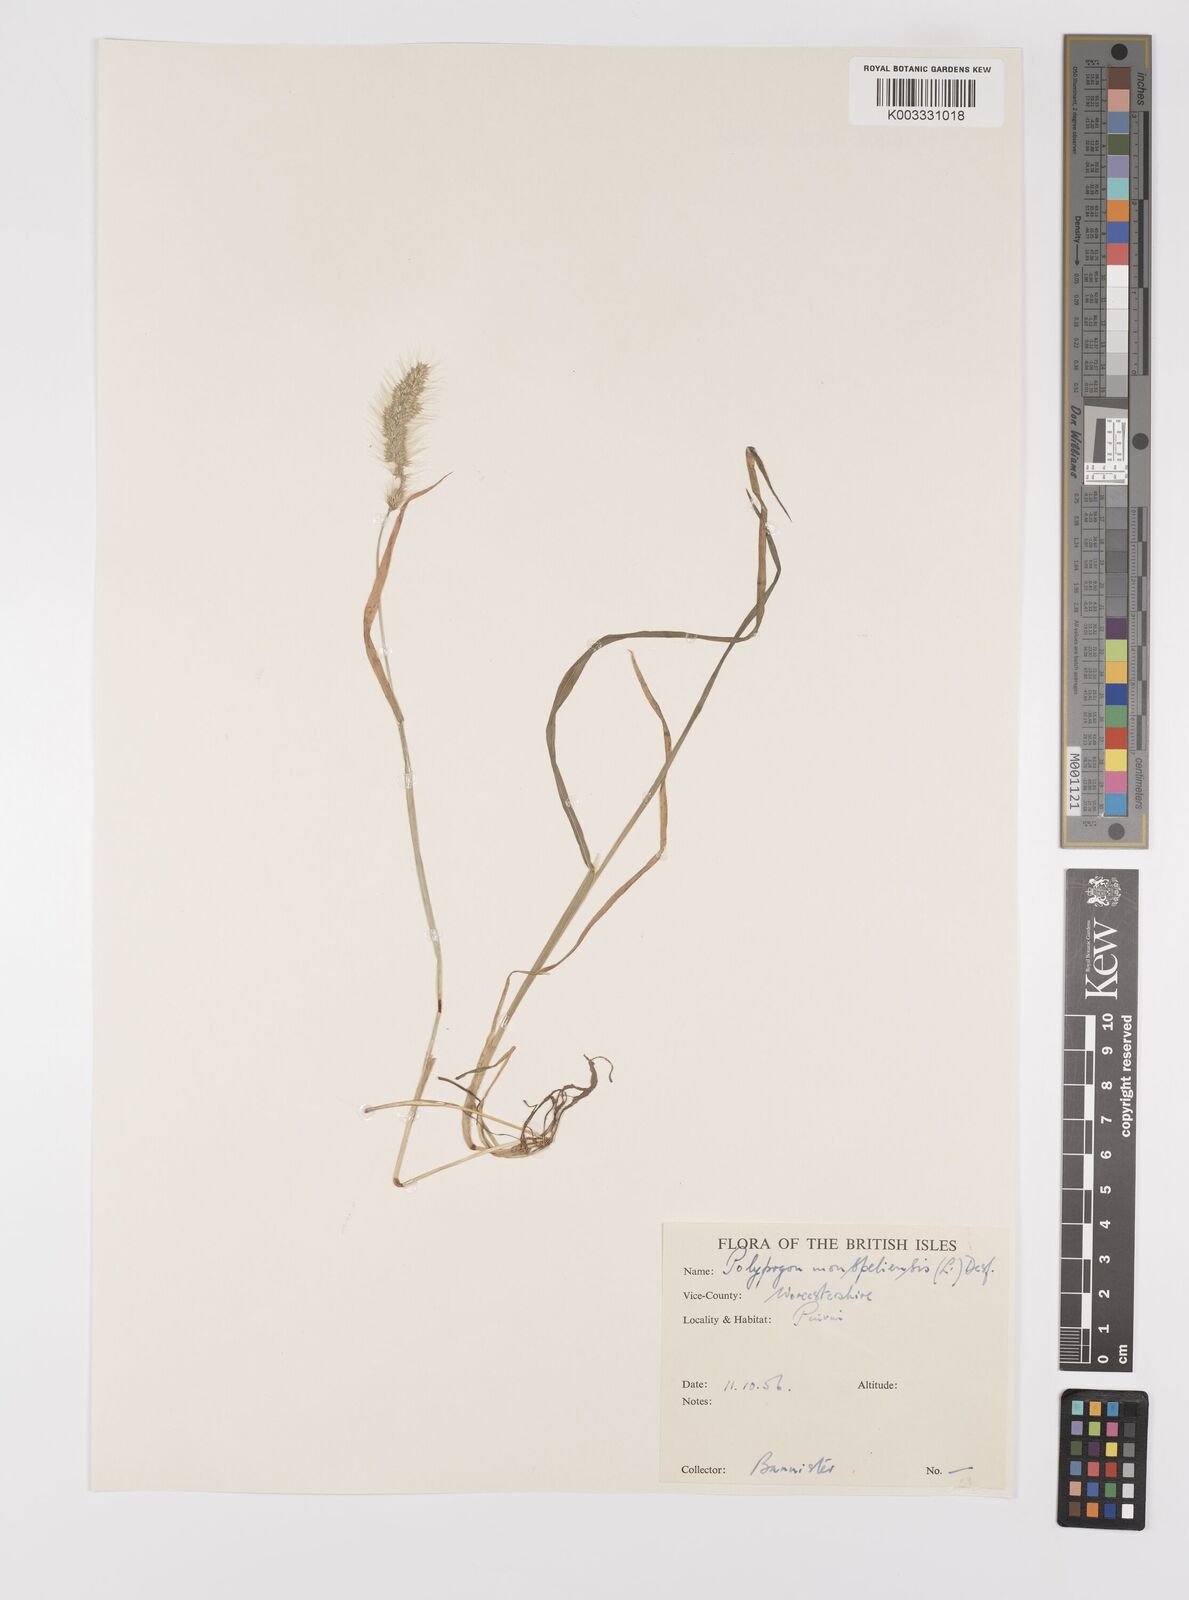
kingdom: Plantae
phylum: Tracheophyta
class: Liliopsida
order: Poales
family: Poaceae
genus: Polypogon
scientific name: Polypogon monspeliensis
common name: Annual rabbitsfoot grass
